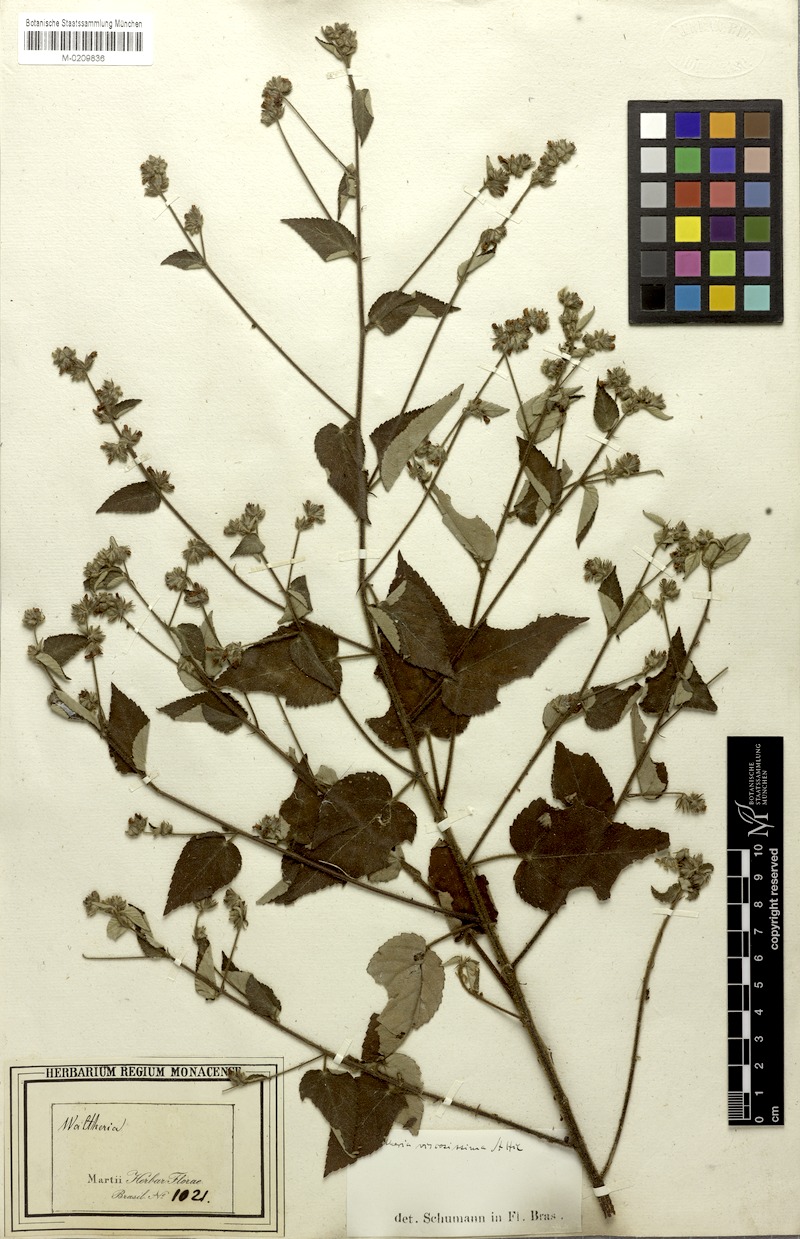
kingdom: Plantae
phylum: Tracheophyta
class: Magnoliopsida
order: Malvales
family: Malvaceae
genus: Waltheria
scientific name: Waltheria viscosissima
